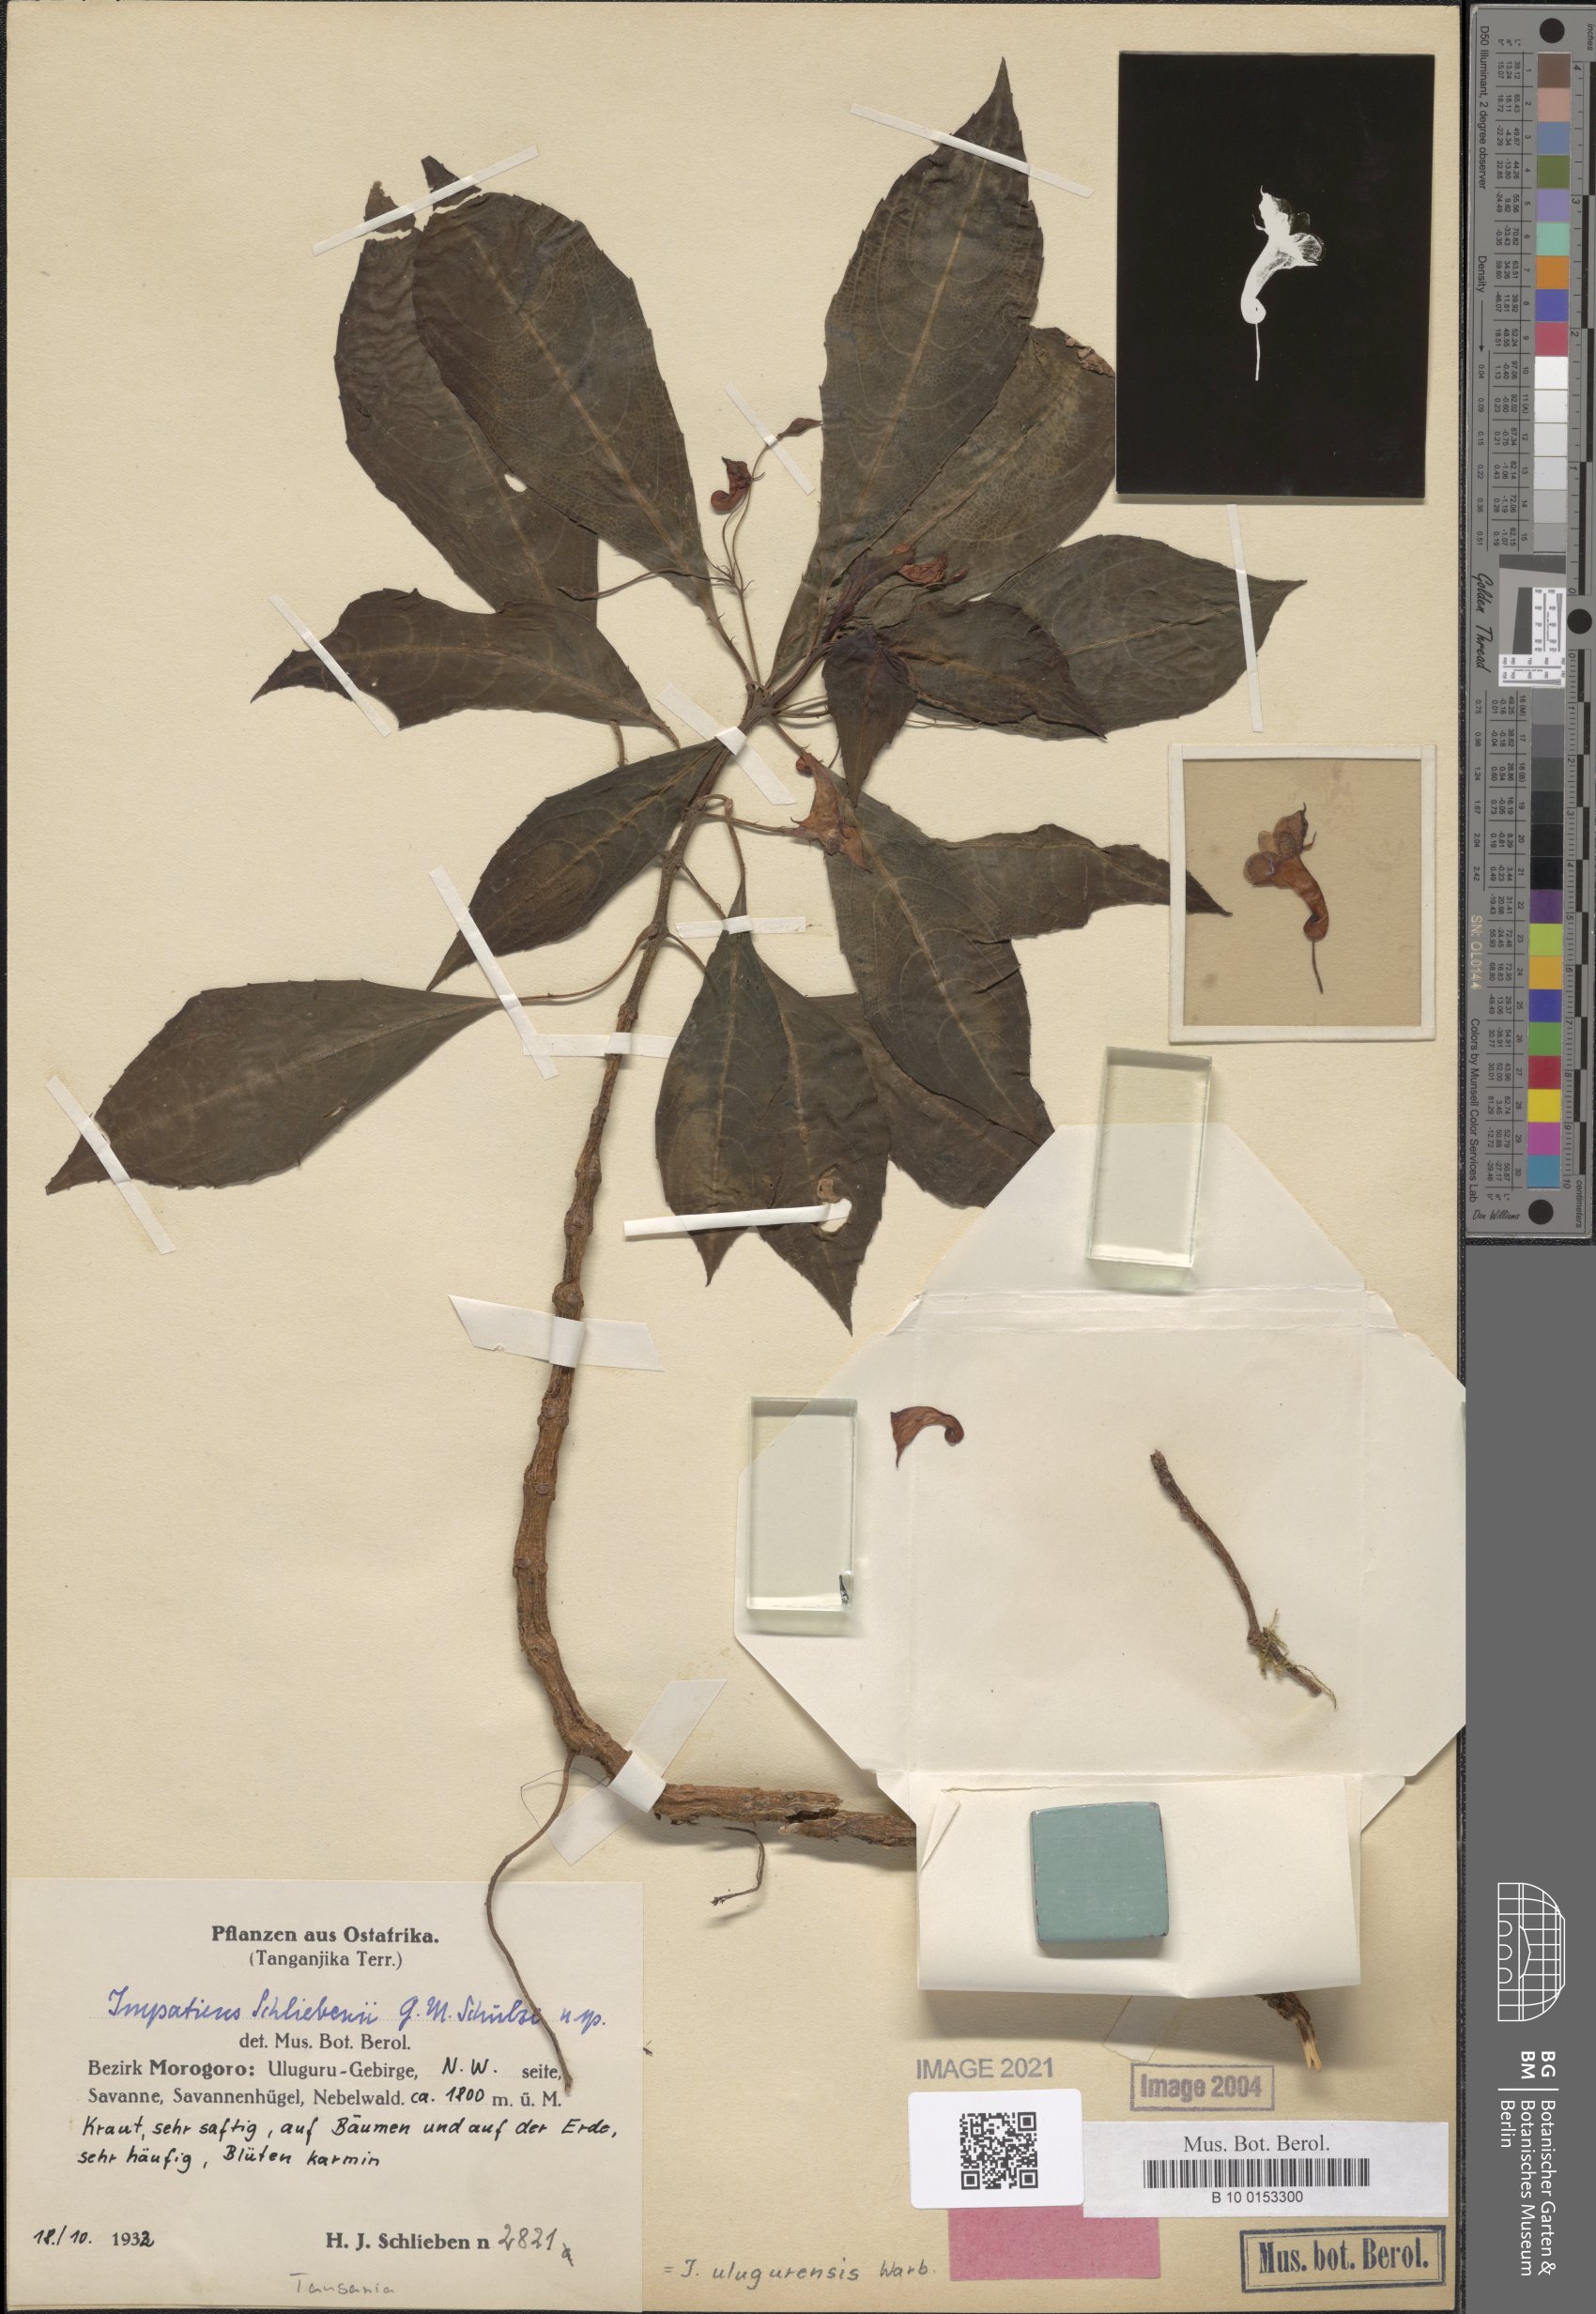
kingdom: Plantae
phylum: Tracheophyta
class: Magnoliopsida
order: Ericales
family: Balsaminaceae
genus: Impatiens
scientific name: Impatiens ulugurensis
